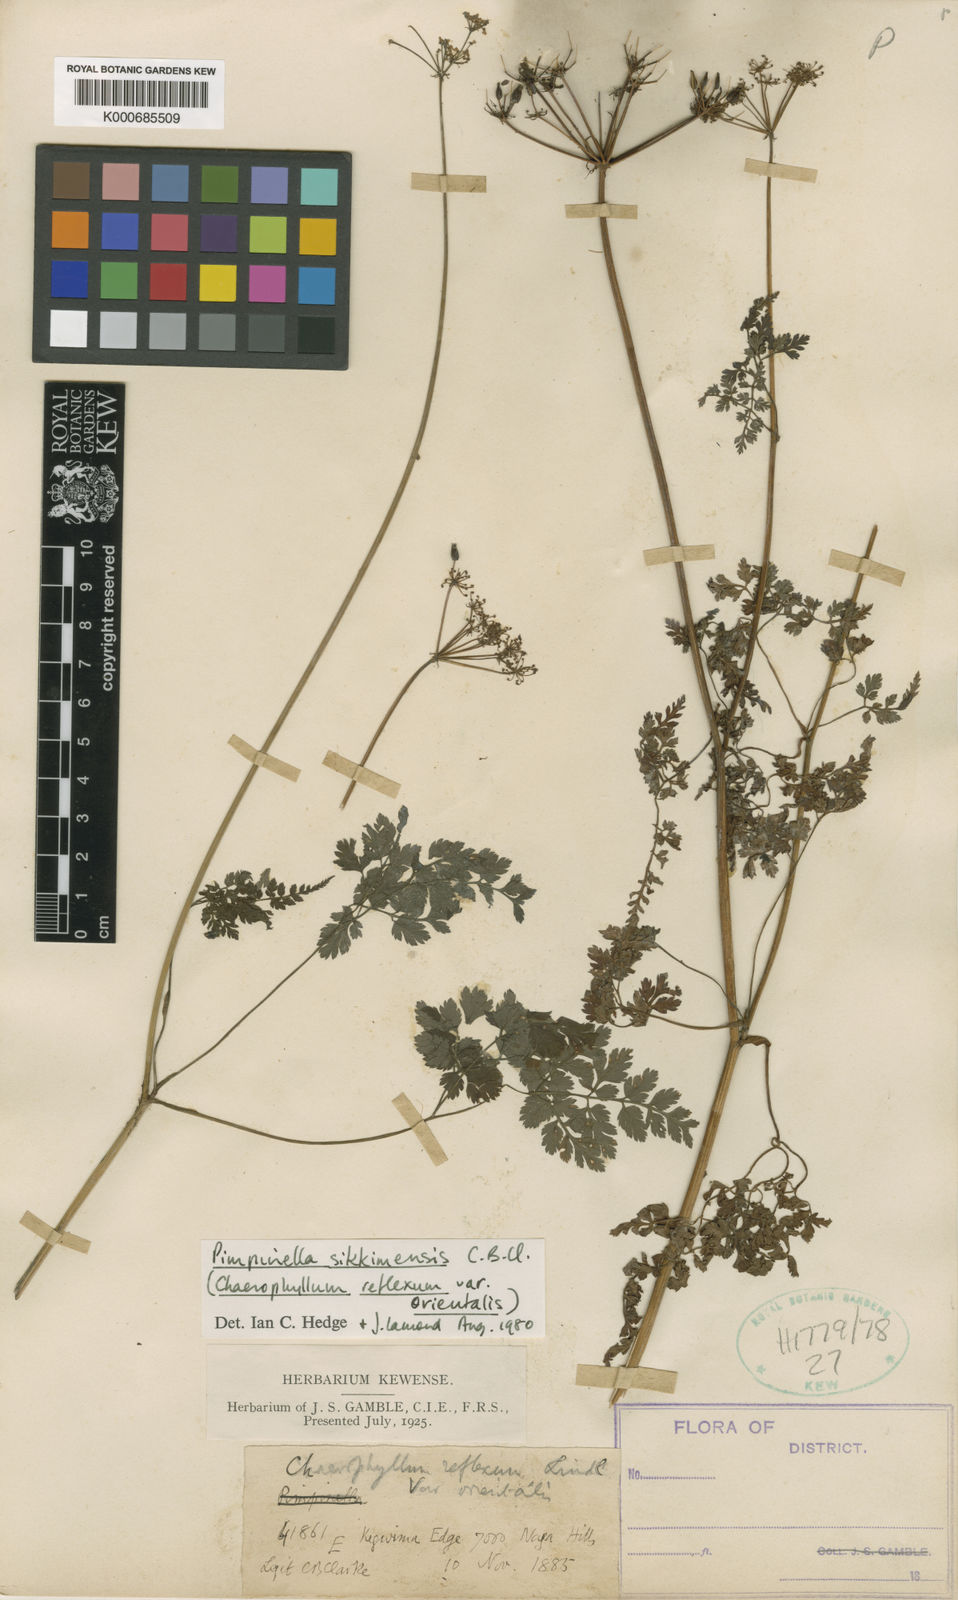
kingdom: Plantae
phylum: Tracheophyta
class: Magnoliopsida
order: Apiales
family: Apiaceae
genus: Pimpinella
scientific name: Pimpinella sikkimensis
